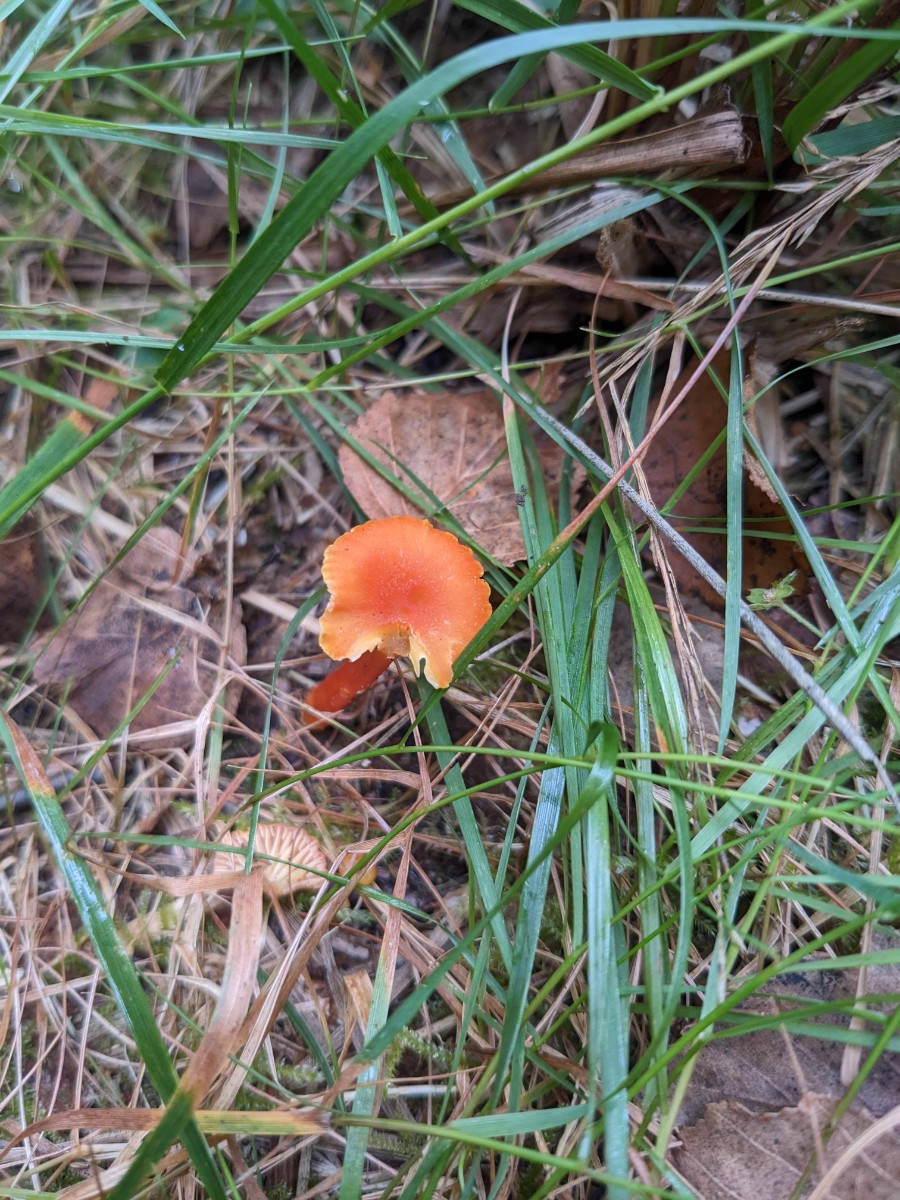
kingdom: Fungi
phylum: Basidiomycota
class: Agaricomycetes
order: Agaricales
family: Hygrophoraceae
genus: Hygrocybe
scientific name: Hygrocybe cantharellus
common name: kantarel-vokshat
